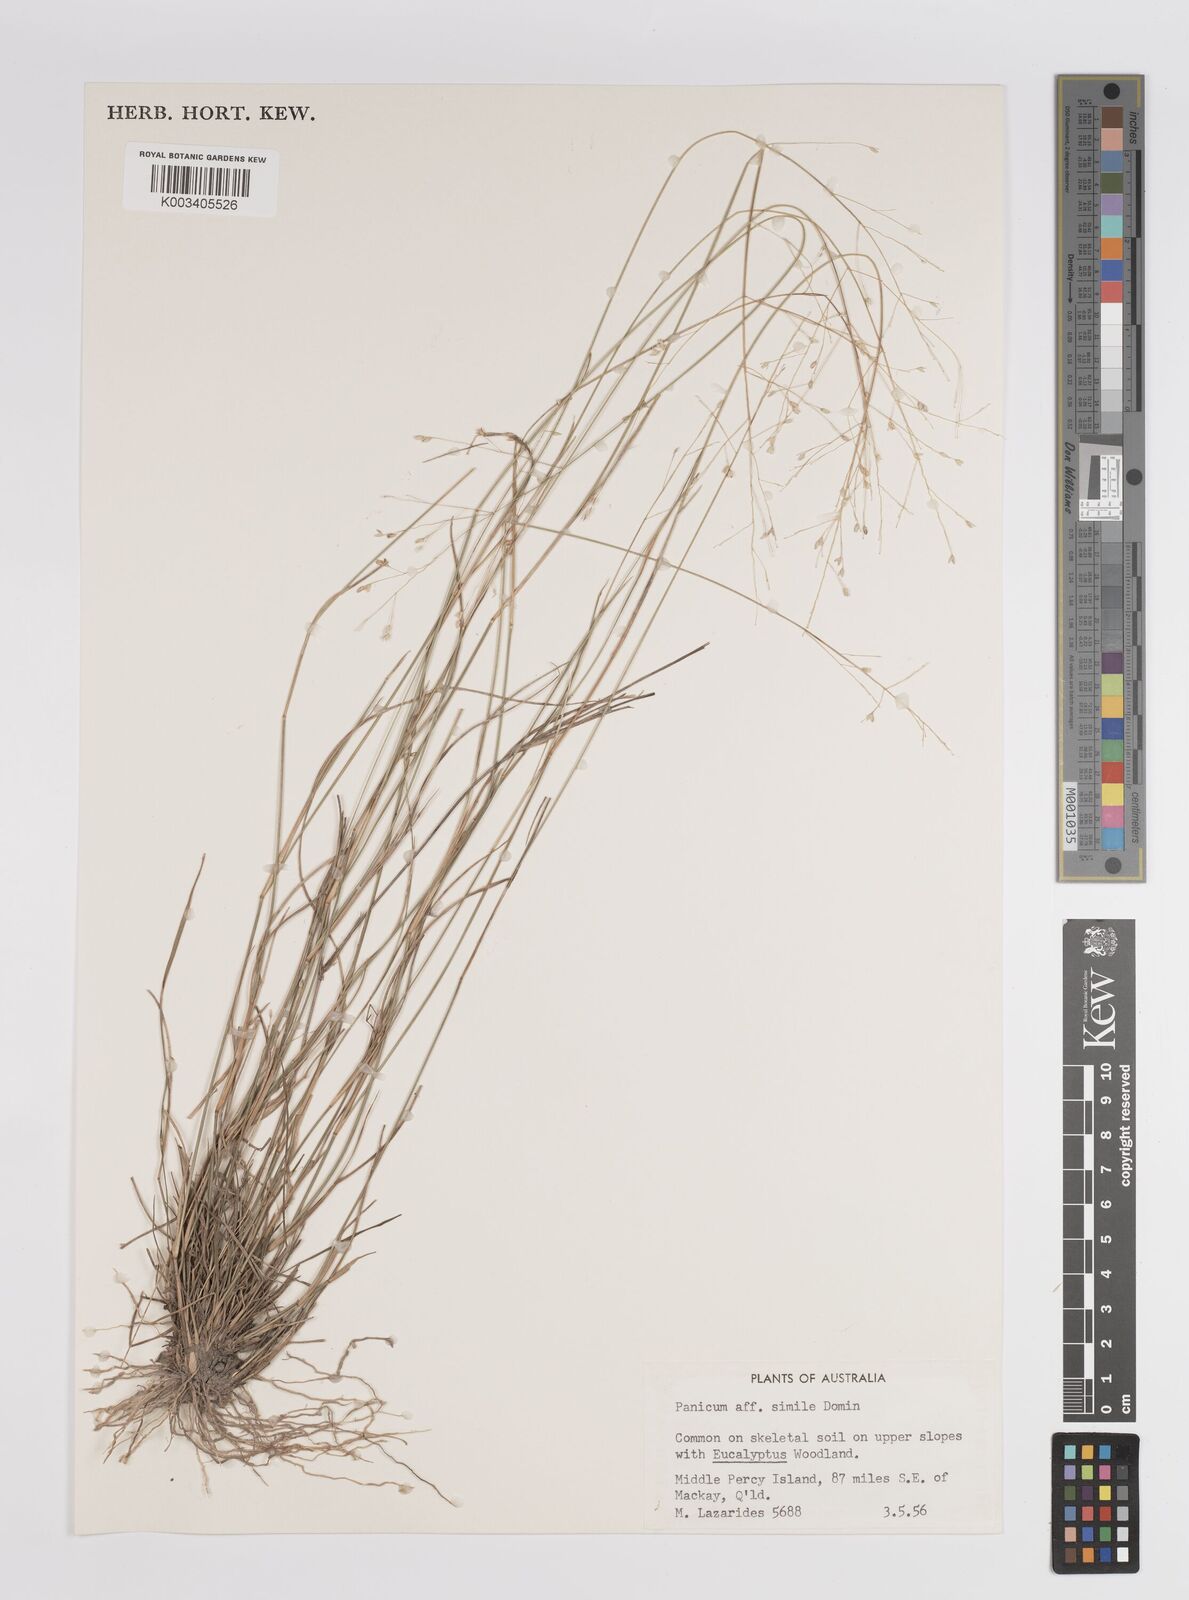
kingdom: Plantae
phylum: Tracheophyta
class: Liliopsida
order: Poales
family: Poaceae
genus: Panicum
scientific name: Panicum
